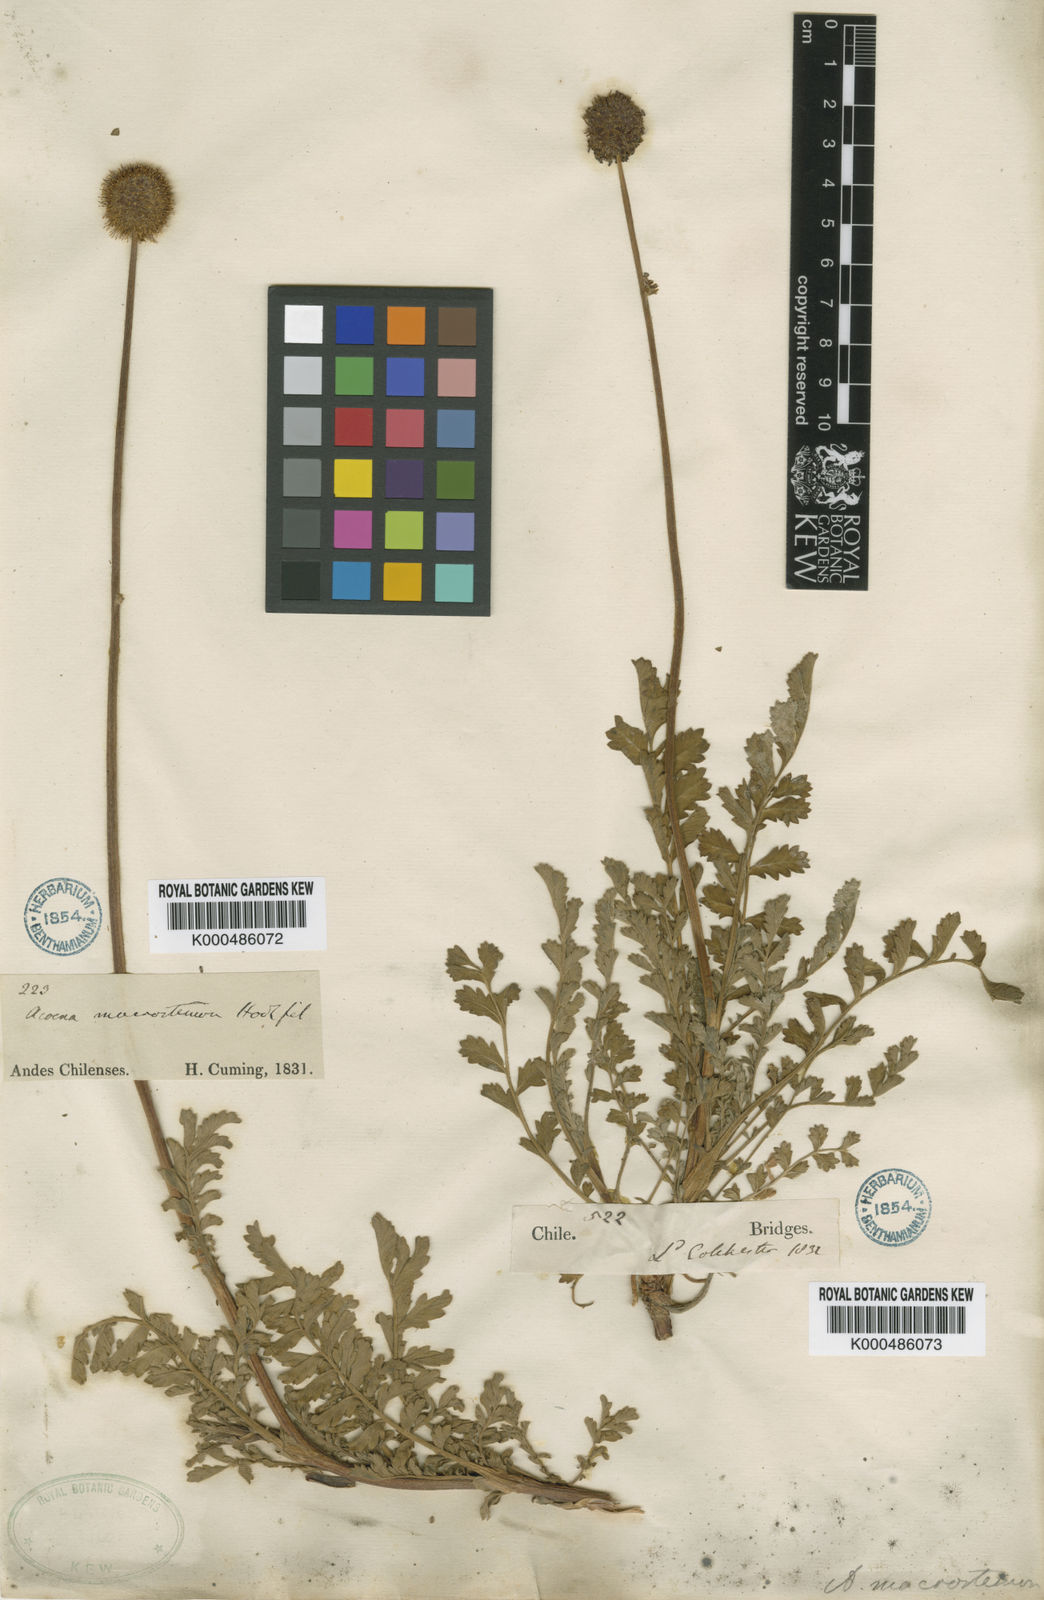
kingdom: Plantae
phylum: Tracheophyta
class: Magnoliopsida
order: Rosales
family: Rosaceae
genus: Acaena
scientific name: Acaena magellanica
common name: New zealand burr
